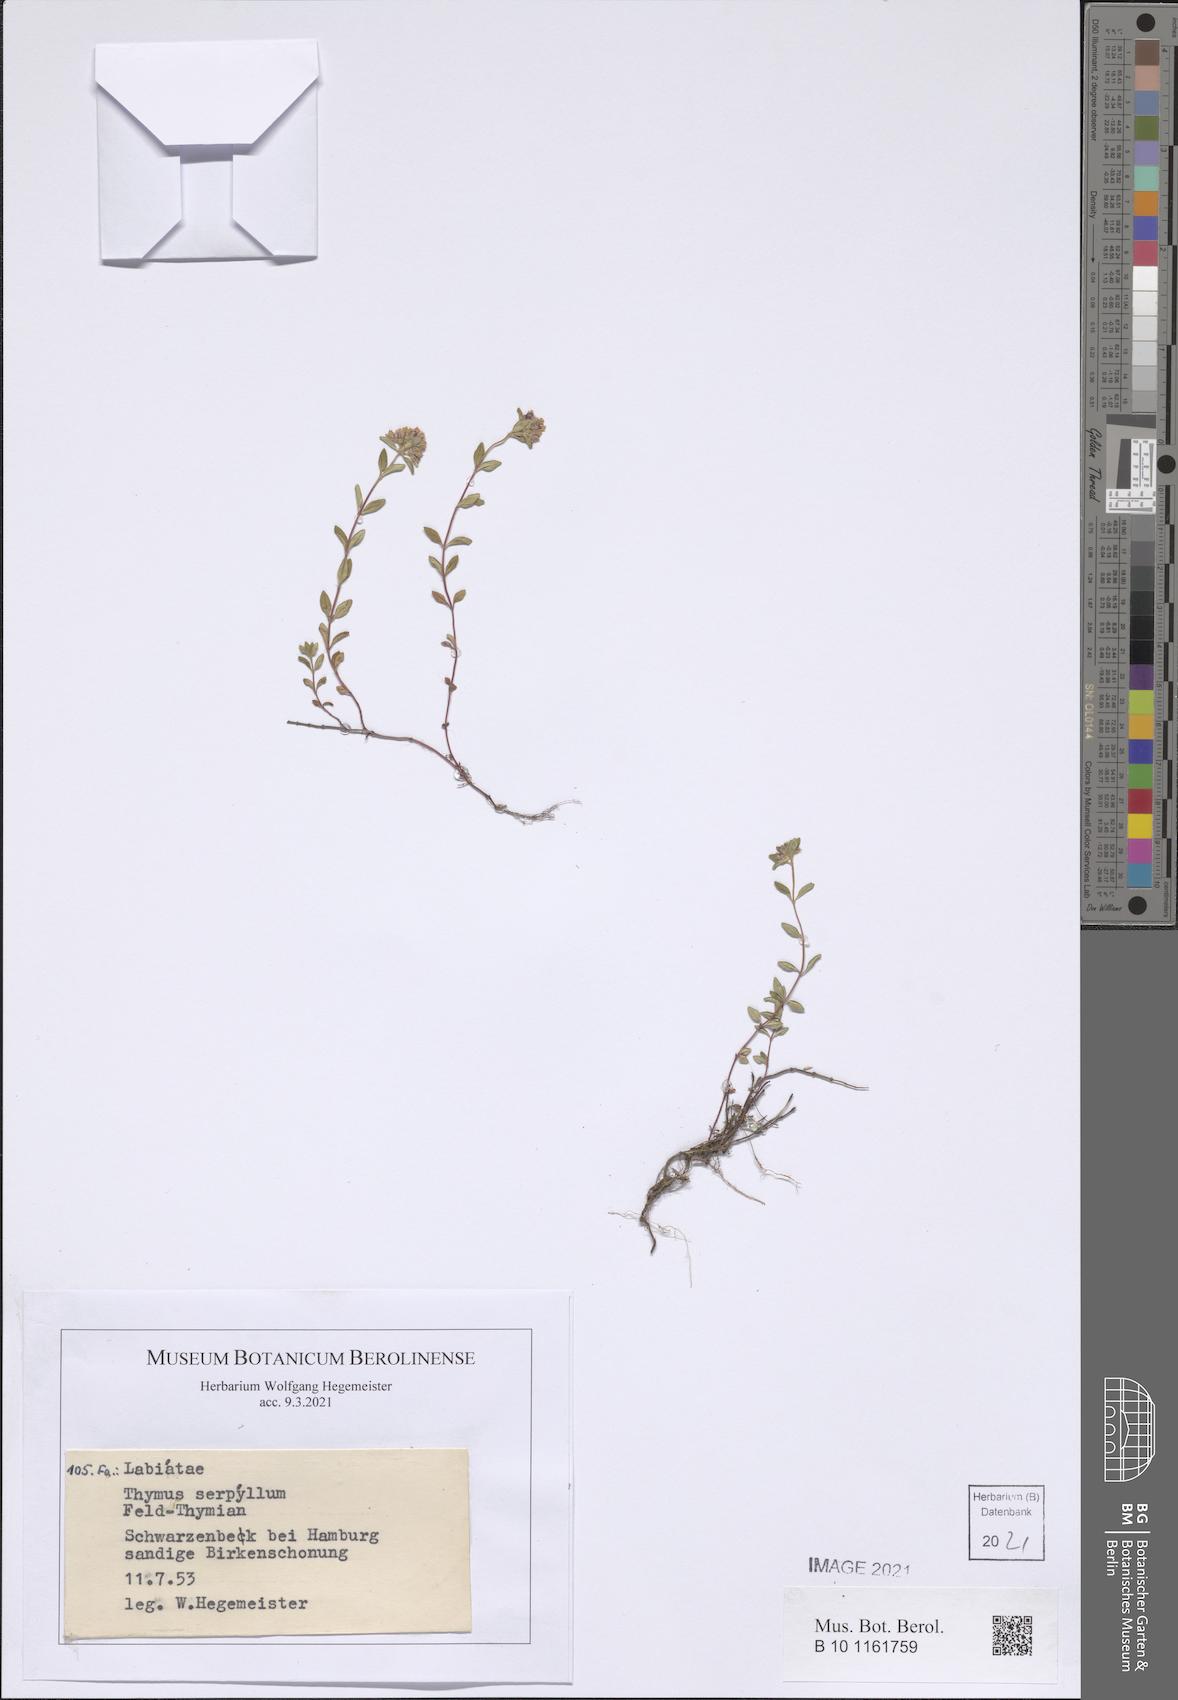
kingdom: Plantae
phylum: Tracheophyta
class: Magnoliopsida
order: Lamiales
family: Lamiaceae
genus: Thymus
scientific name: Thymus serpyllum
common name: Breckland thyme
